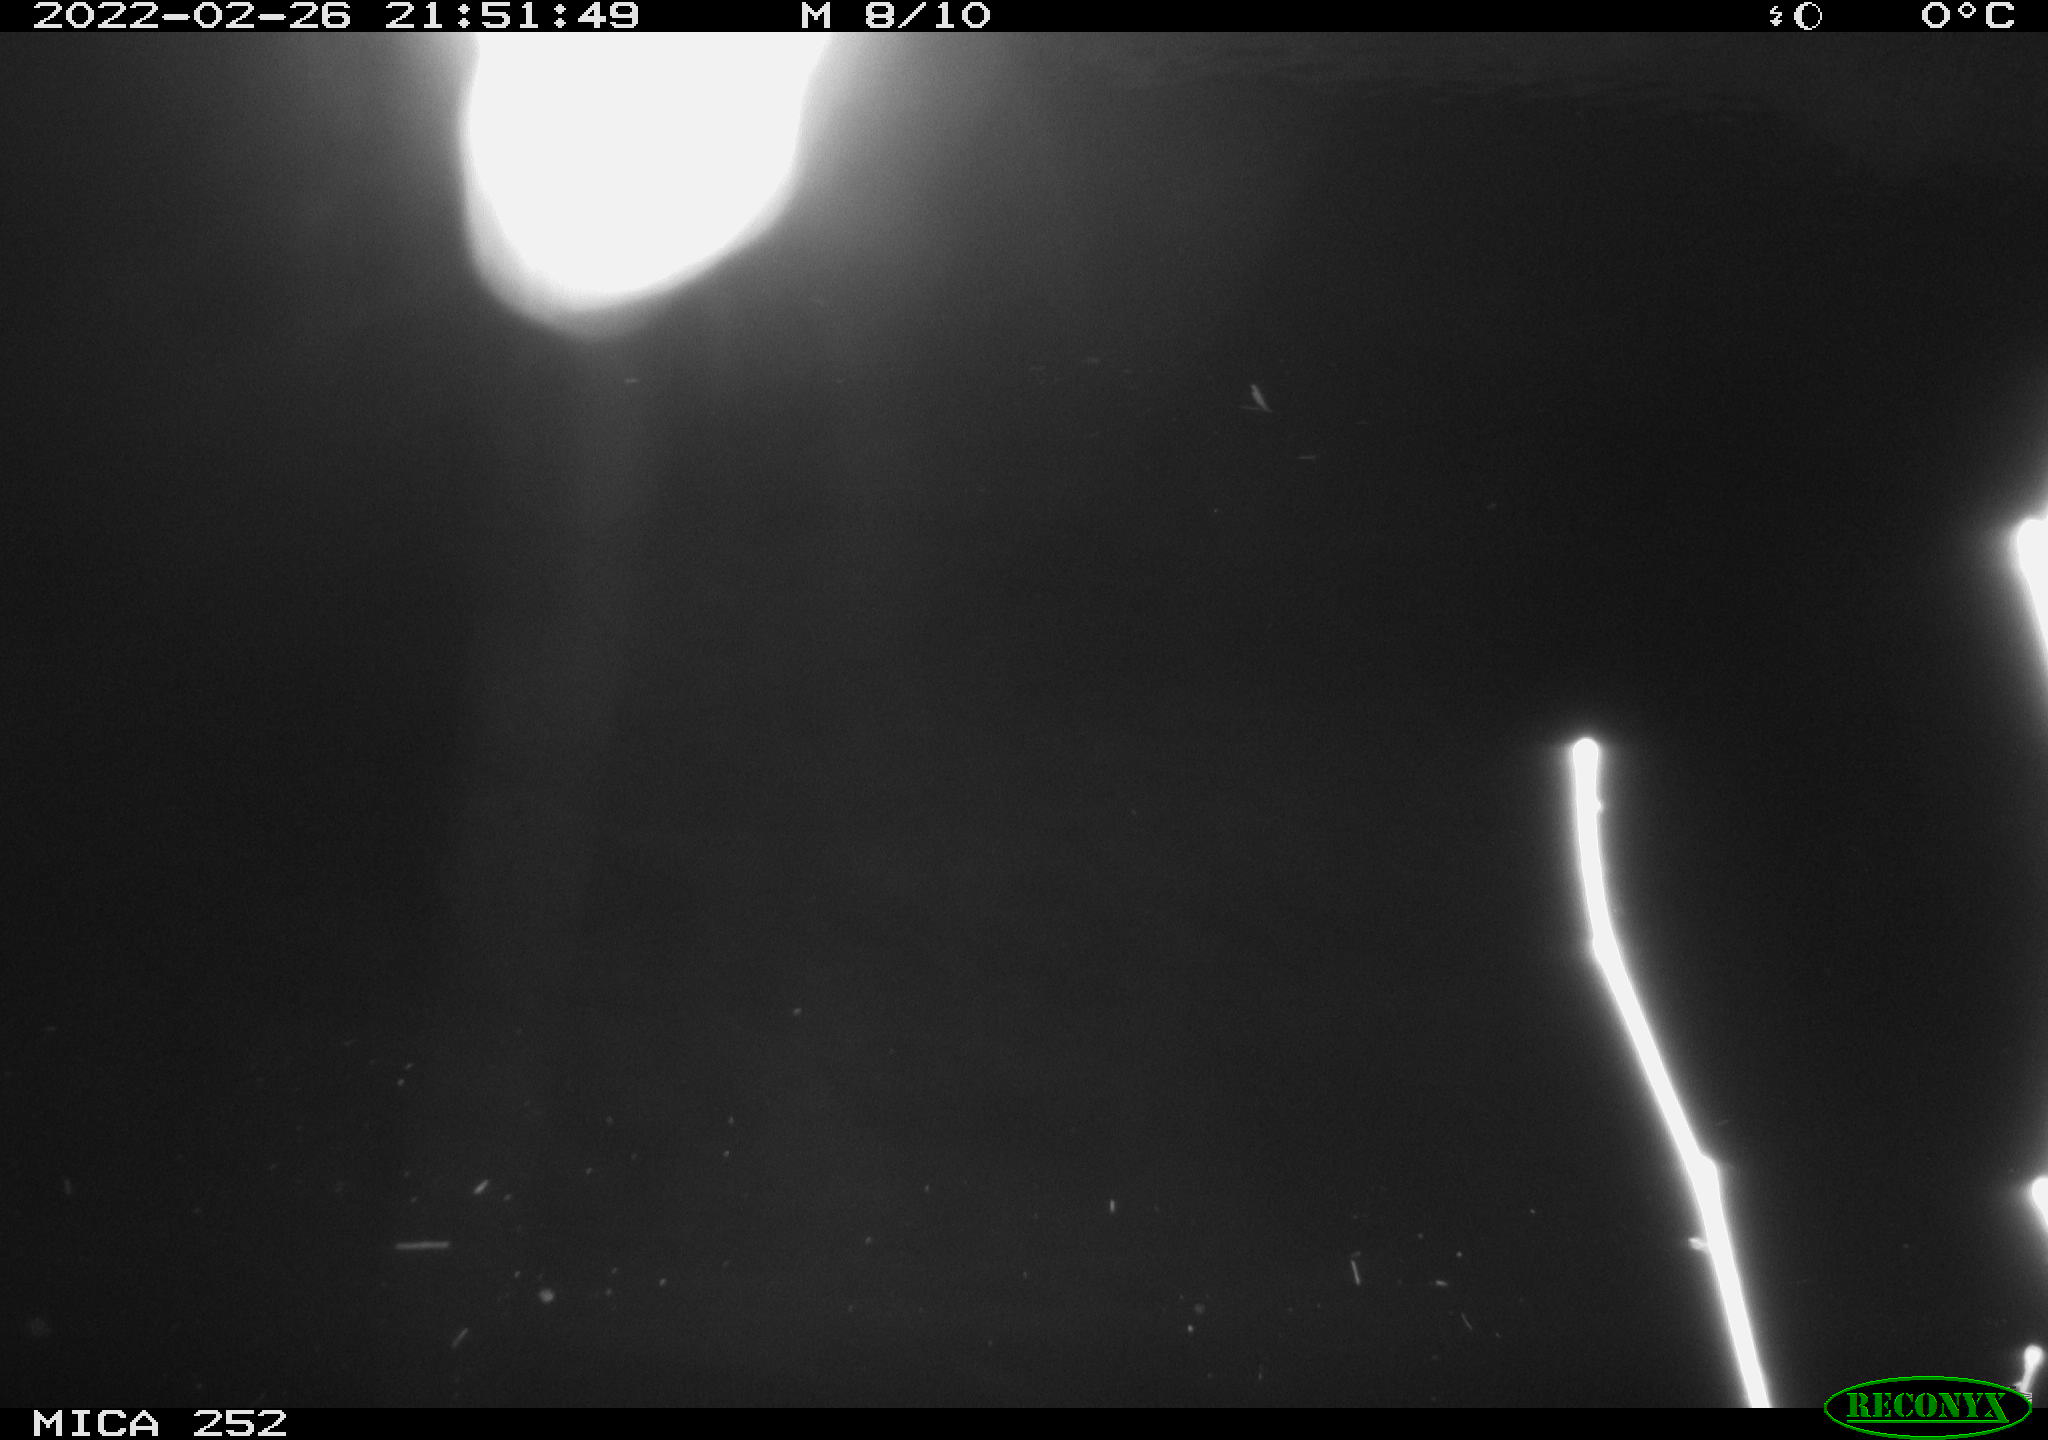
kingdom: Animalia
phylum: Chordata
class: Mammalia
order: Rodentia
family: Castoridae
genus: Castor
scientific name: Castor fiber
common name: Eurasian beaver
